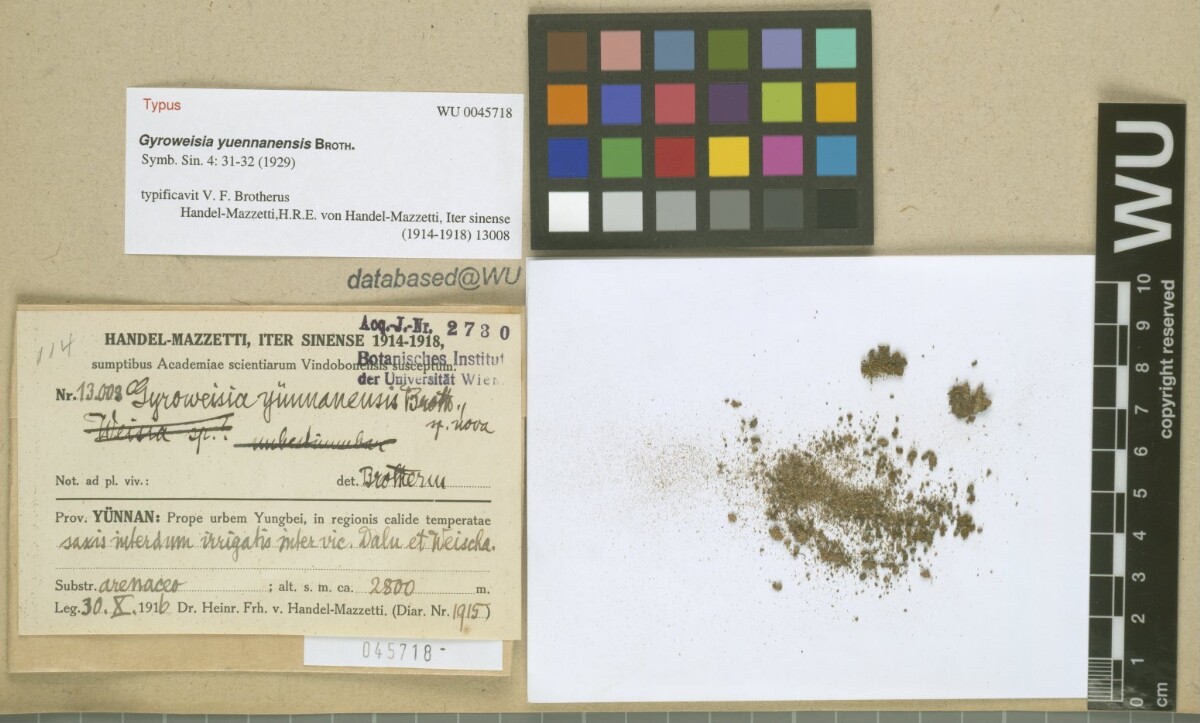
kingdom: Plantae
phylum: Bryophyta
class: Bryopsida
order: Pottiales
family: Pottiaceae
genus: Gyroweisia
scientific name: Gyroweisia yuennanensis
